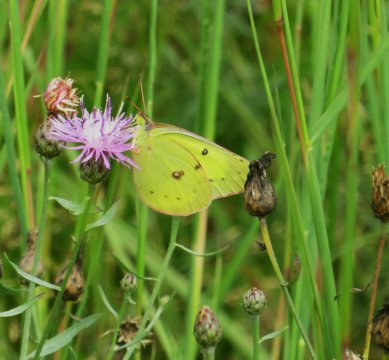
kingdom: Animalia
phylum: Arthropoda
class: Insecta
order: Lepidoptera
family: Pieridae
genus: Colias
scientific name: Colias eurytheme
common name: Orange Sulphur
